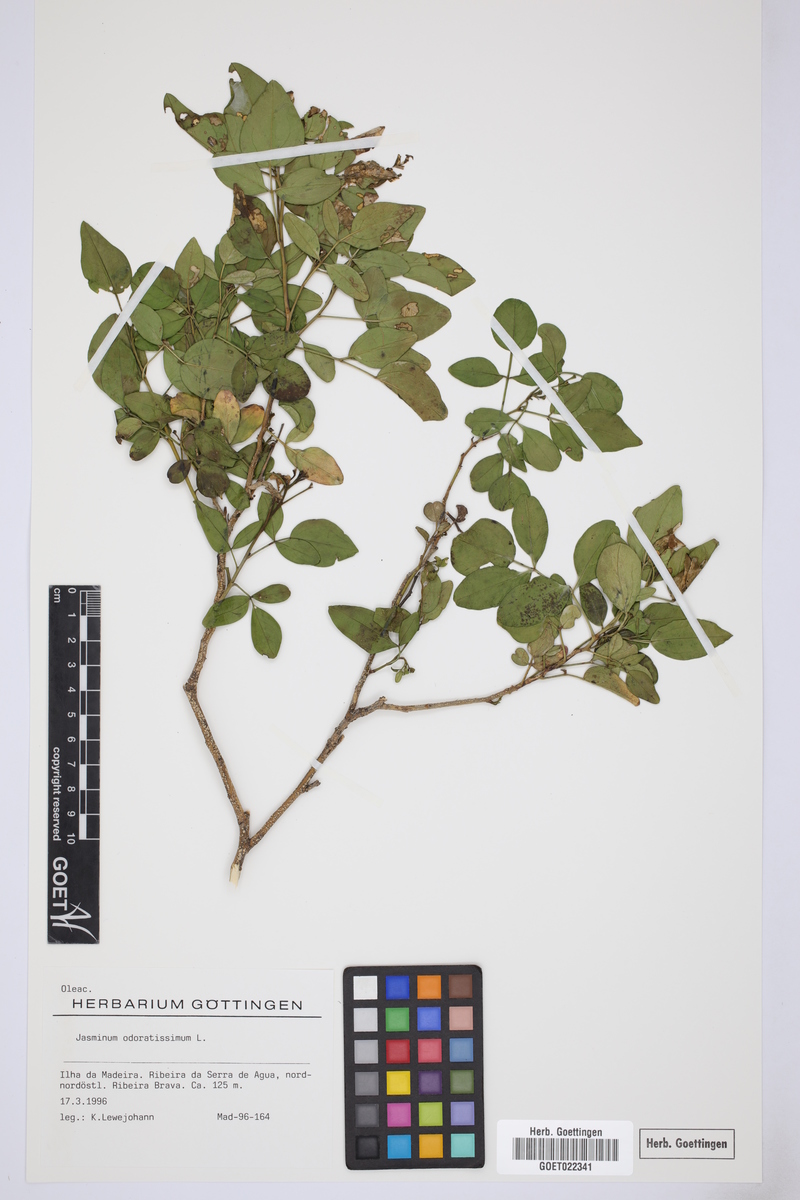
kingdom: Plantae
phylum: Tracheophyta
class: Magnoliopsida
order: Lamiales
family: Oleaceae
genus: Chrysojasminum
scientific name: Chrysojasminum odoratissimum
